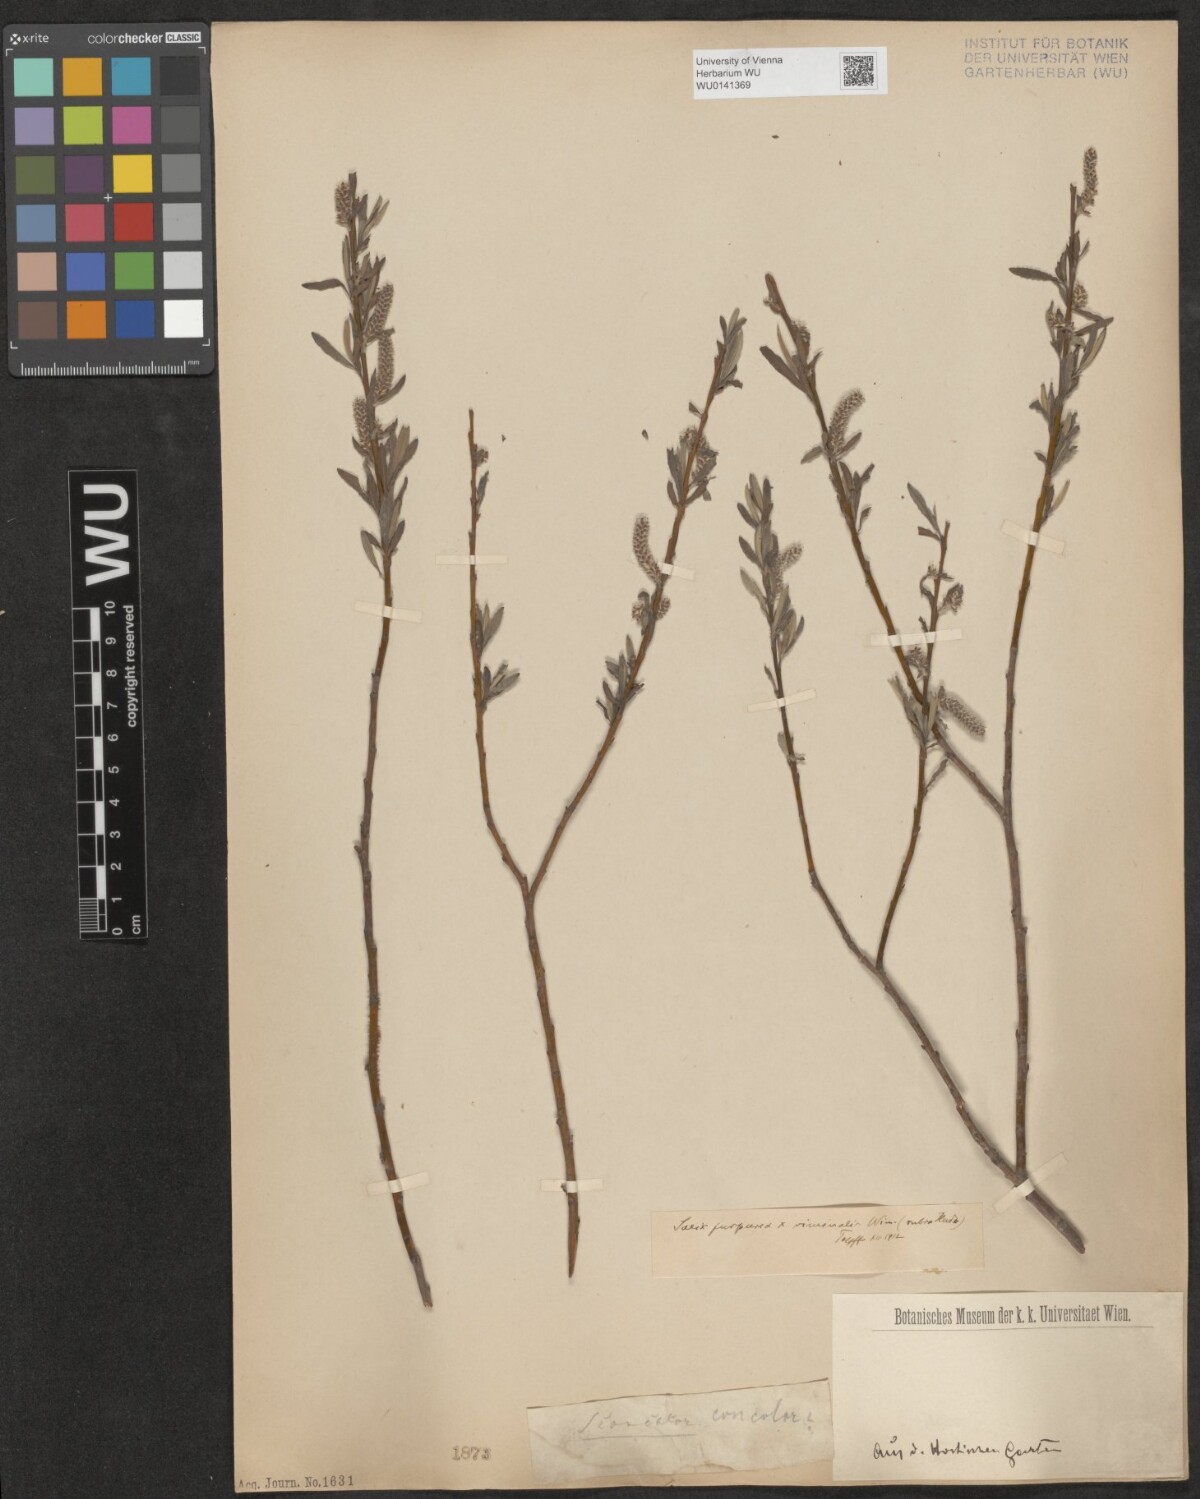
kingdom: Plantae
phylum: Tracheophyta
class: Magnoliopsida
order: Malpighiales
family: Salicaceae
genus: Salix
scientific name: Salix purpurea
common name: Purple willow
